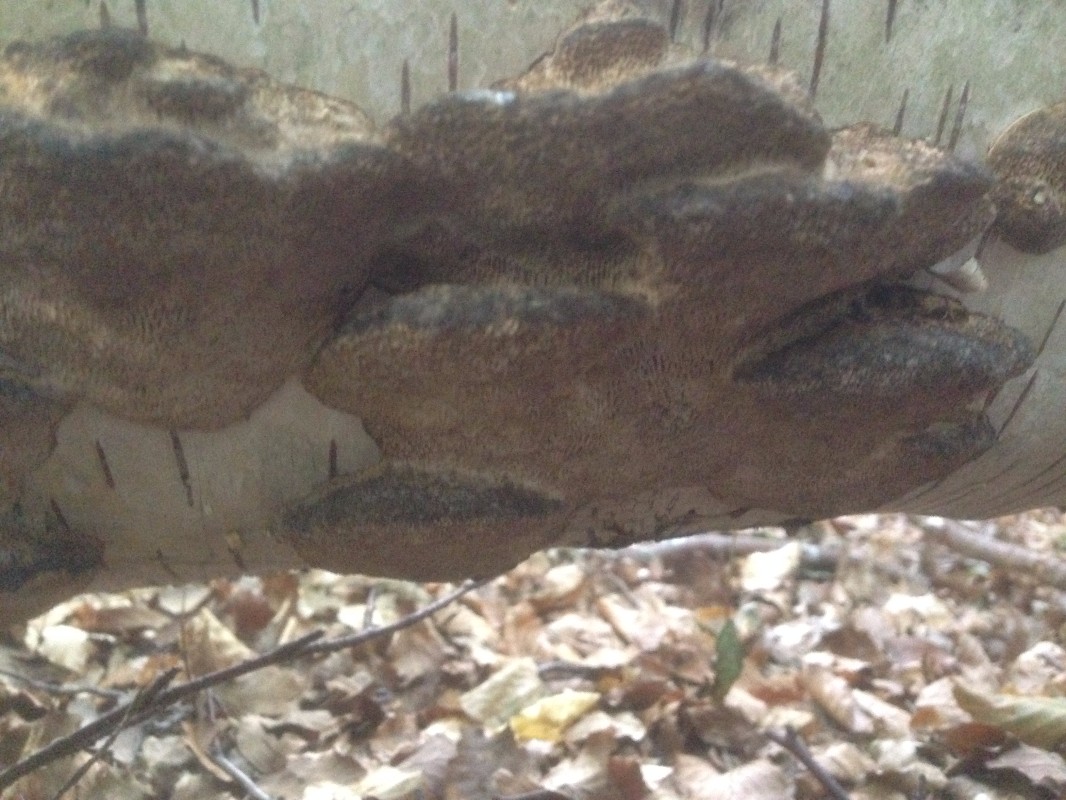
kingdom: Fungi
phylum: Basidiomycota
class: Agaricomycetes
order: Polyporales
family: Polyporaceae
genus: Daedaleopsis
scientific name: Daedaleopsis confragosa
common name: rødmende læderporesvamp
